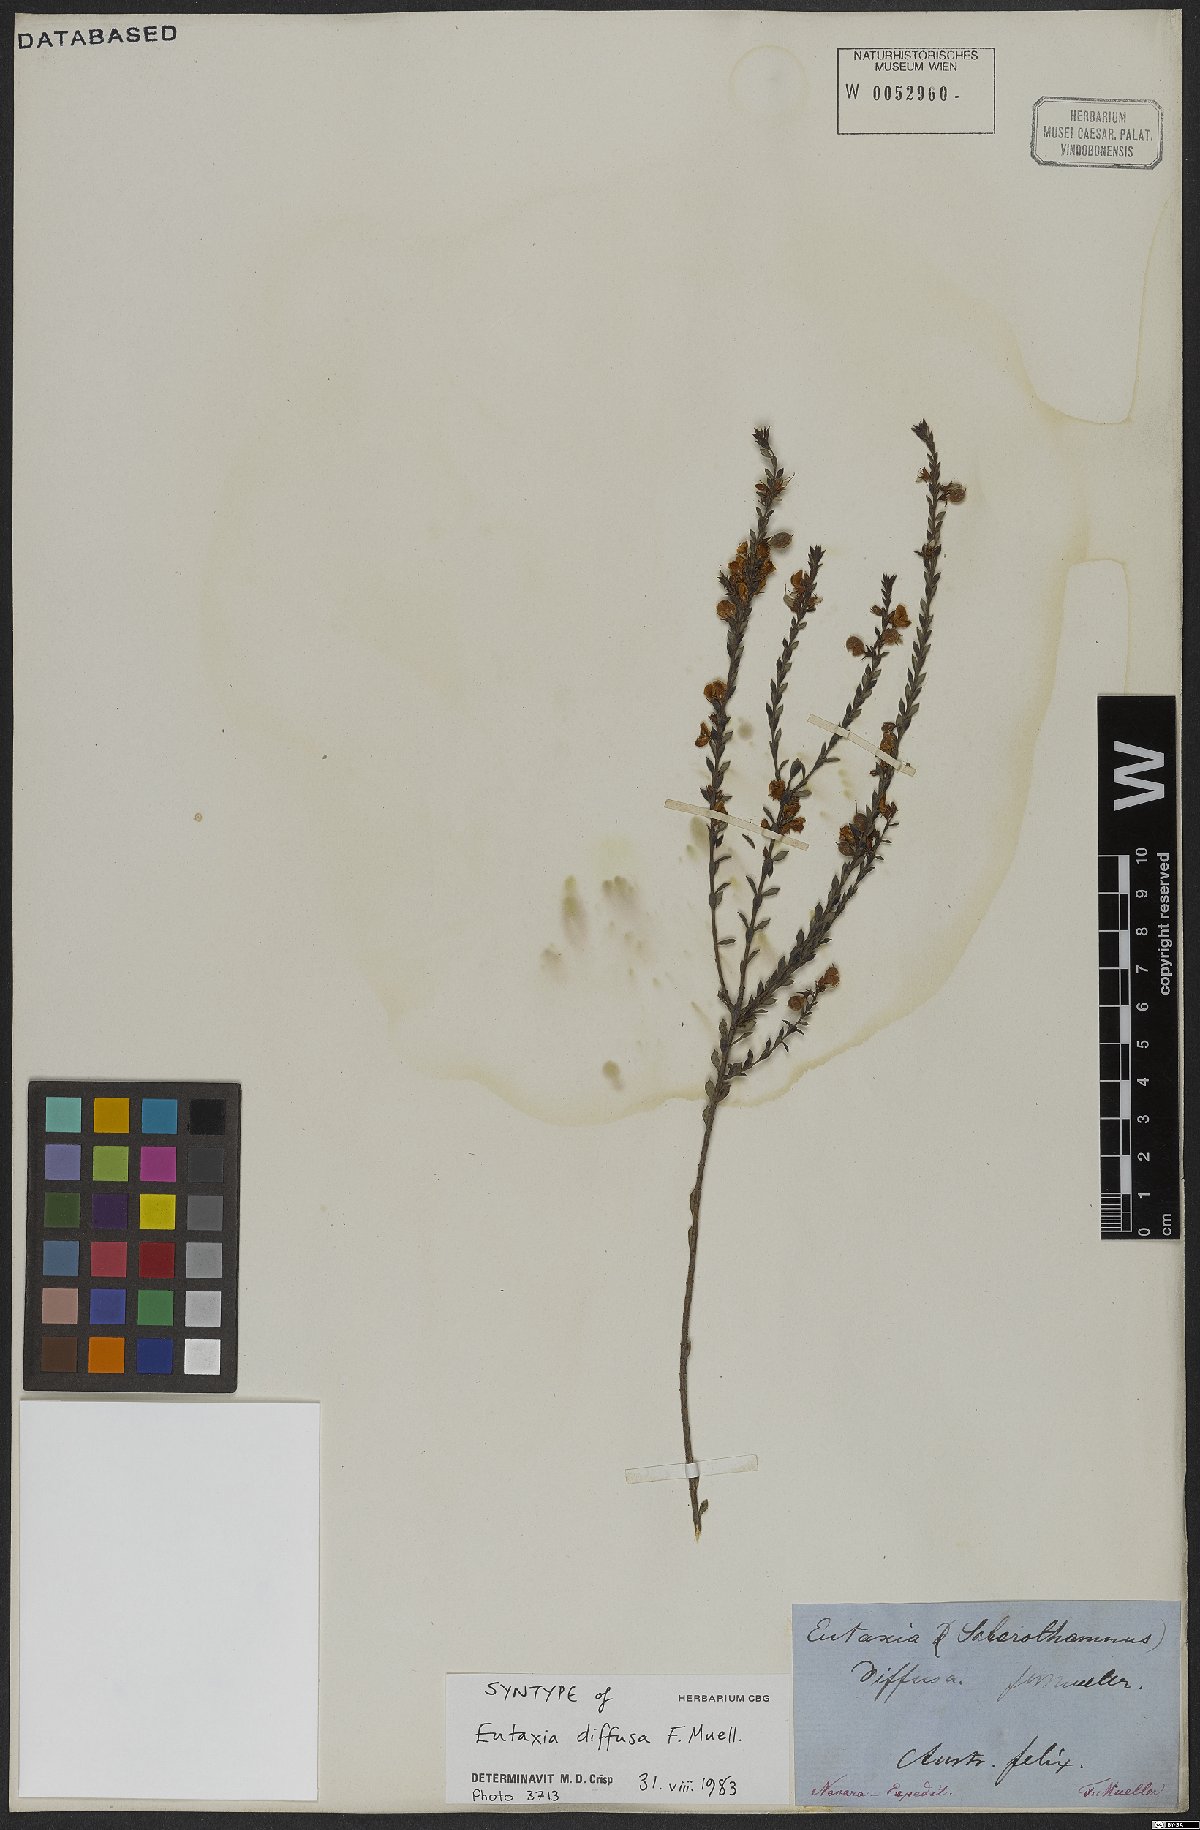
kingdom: Plantae
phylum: Tracheophyta
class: Magnoliopsida
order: Fabales
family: Fabaceae
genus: Eutaxia
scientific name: Eutaxia diffusa
